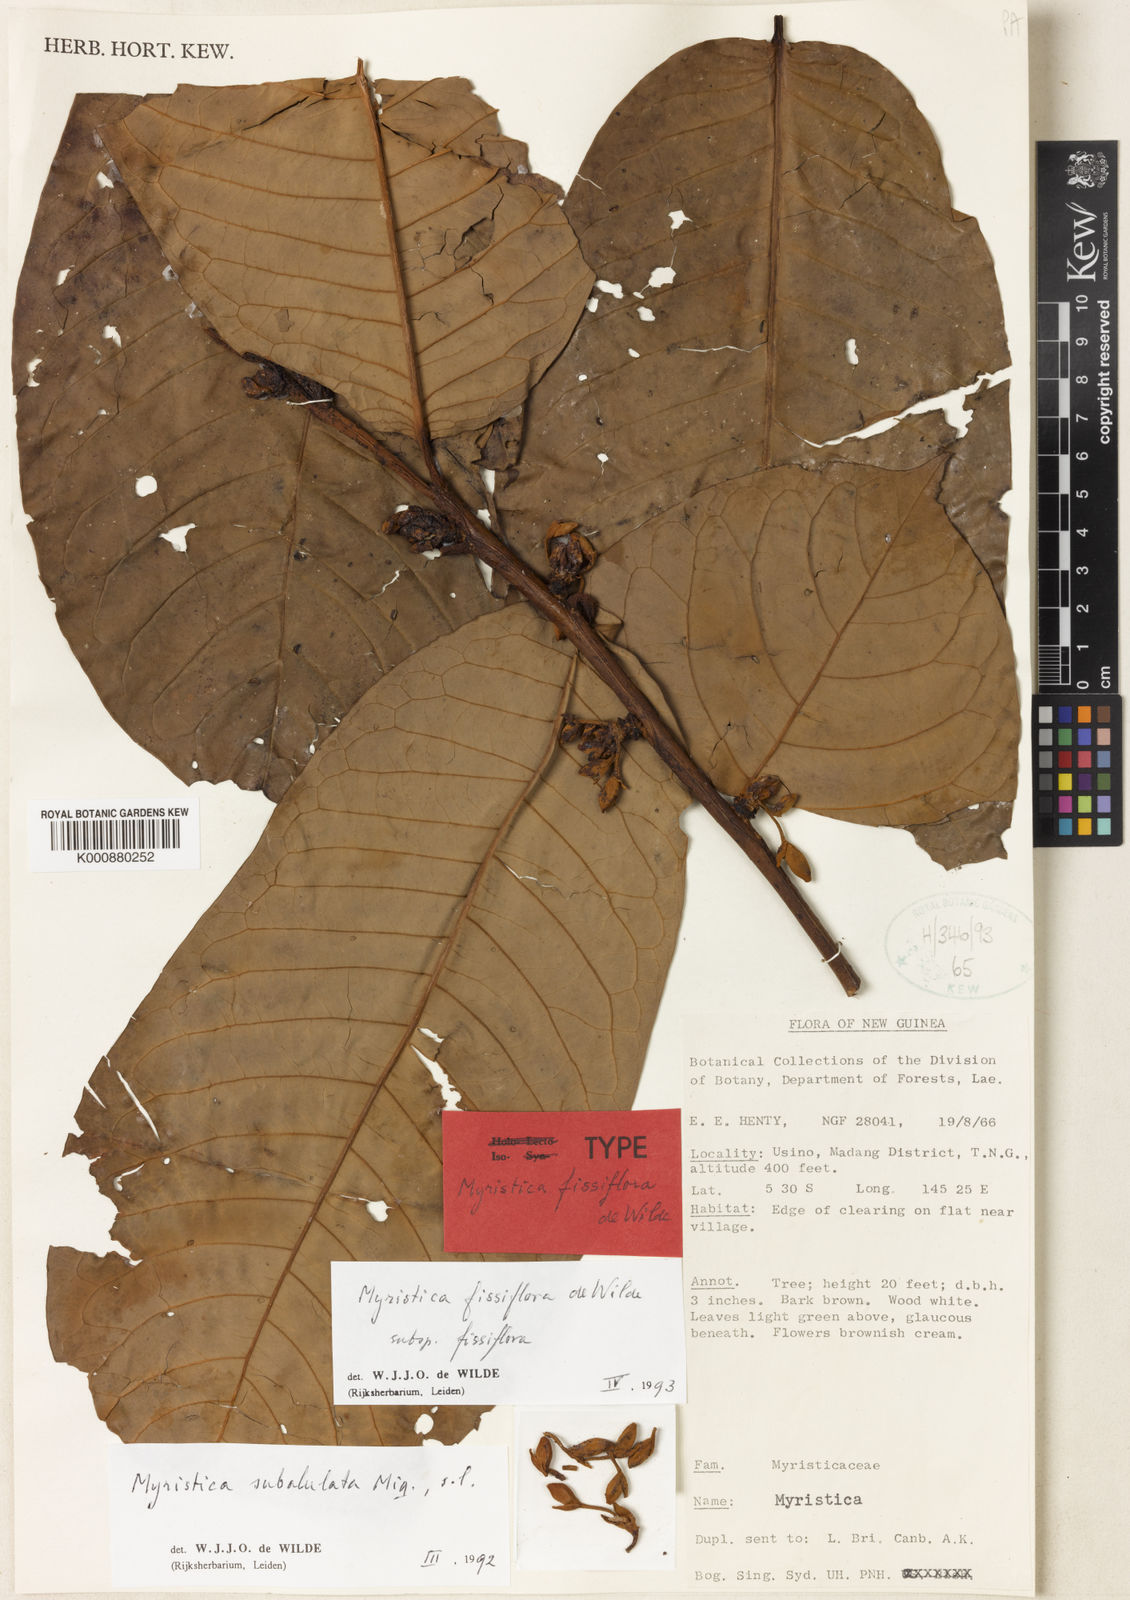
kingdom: Plantae
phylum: Tracheophyta
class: Magnoliopsida
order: Magnoliales
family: Myristicaceae
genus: Myristica
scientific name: Myristica fissiflora
